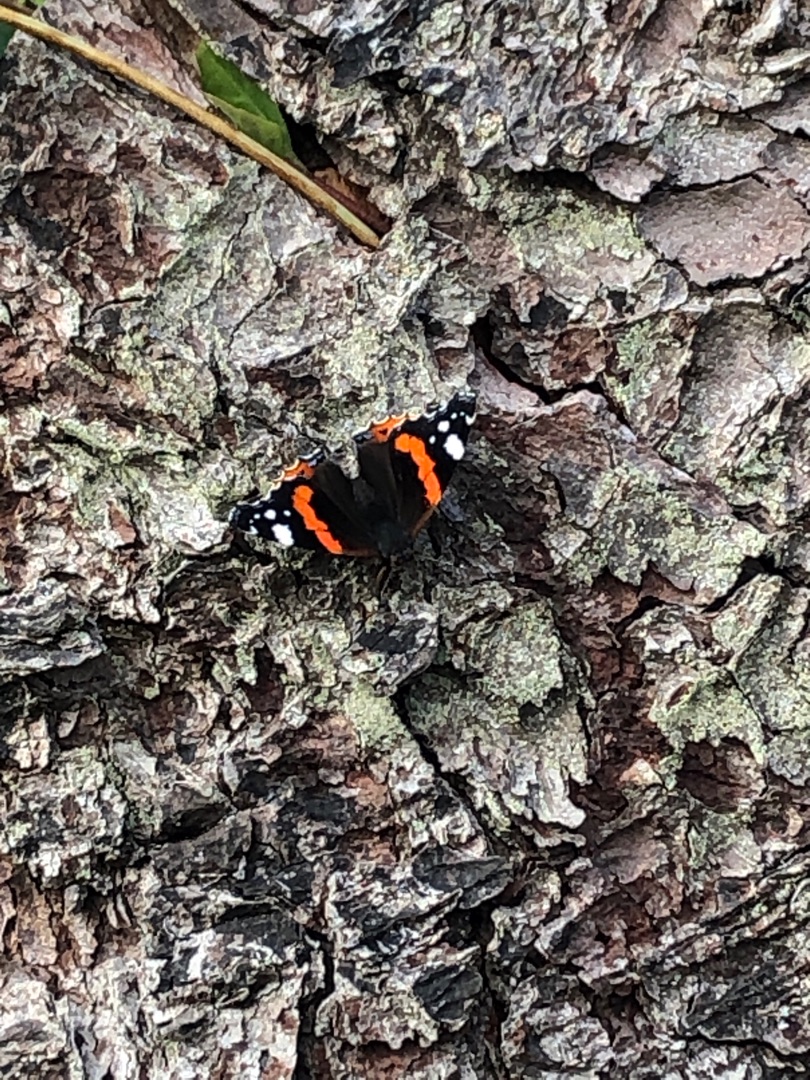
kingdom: Animalia
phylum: Arthropoda
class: Insecta
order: Lepidoptera
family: Nymphalidae
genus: Vanessa
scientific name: Vanessa atalanta
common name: Admiral
